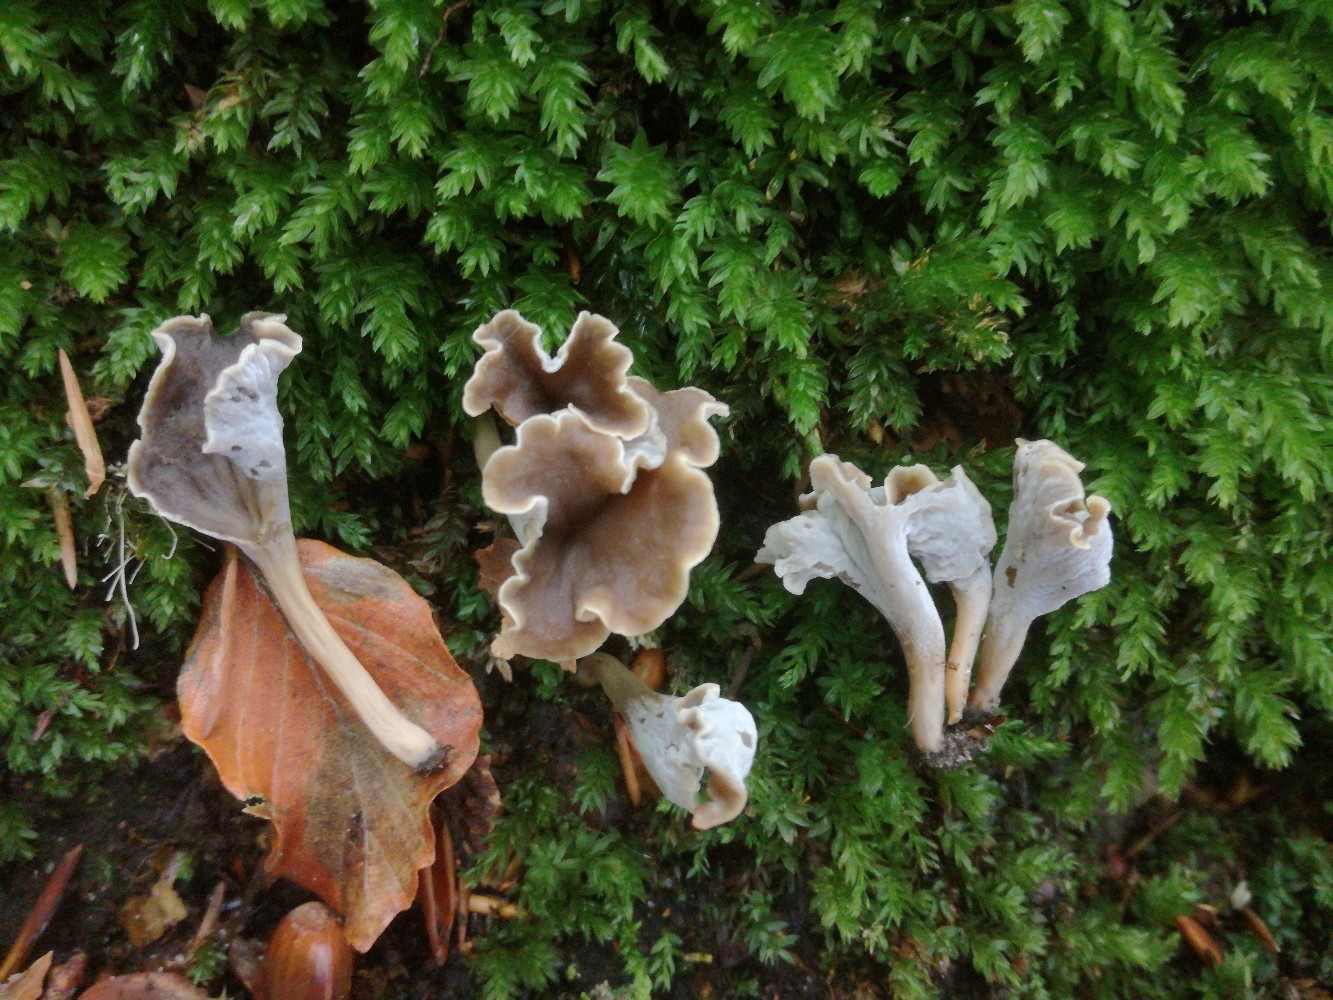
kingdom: Fungi
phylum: Basidiomycota
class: Agaricomycetes
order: Cantharellales
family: Hydnaceae
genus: Craterellus
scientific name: Craterellus undulatus
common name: liden kantarel
